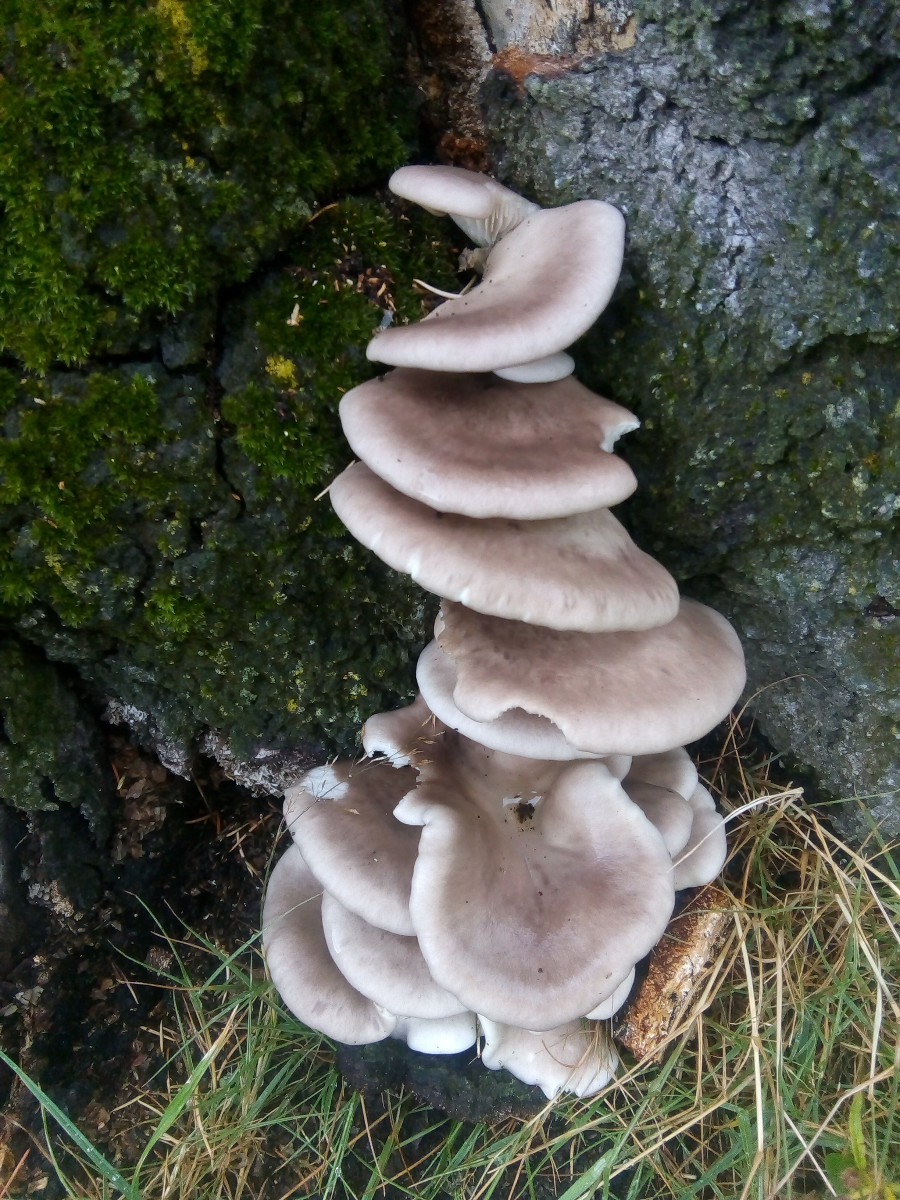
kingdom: Fungi
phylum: Basidiomycota
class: Agaricomycetes
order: Agaricales
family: Pleurotaceae
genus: Pleurotus
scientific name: Pleurotus
